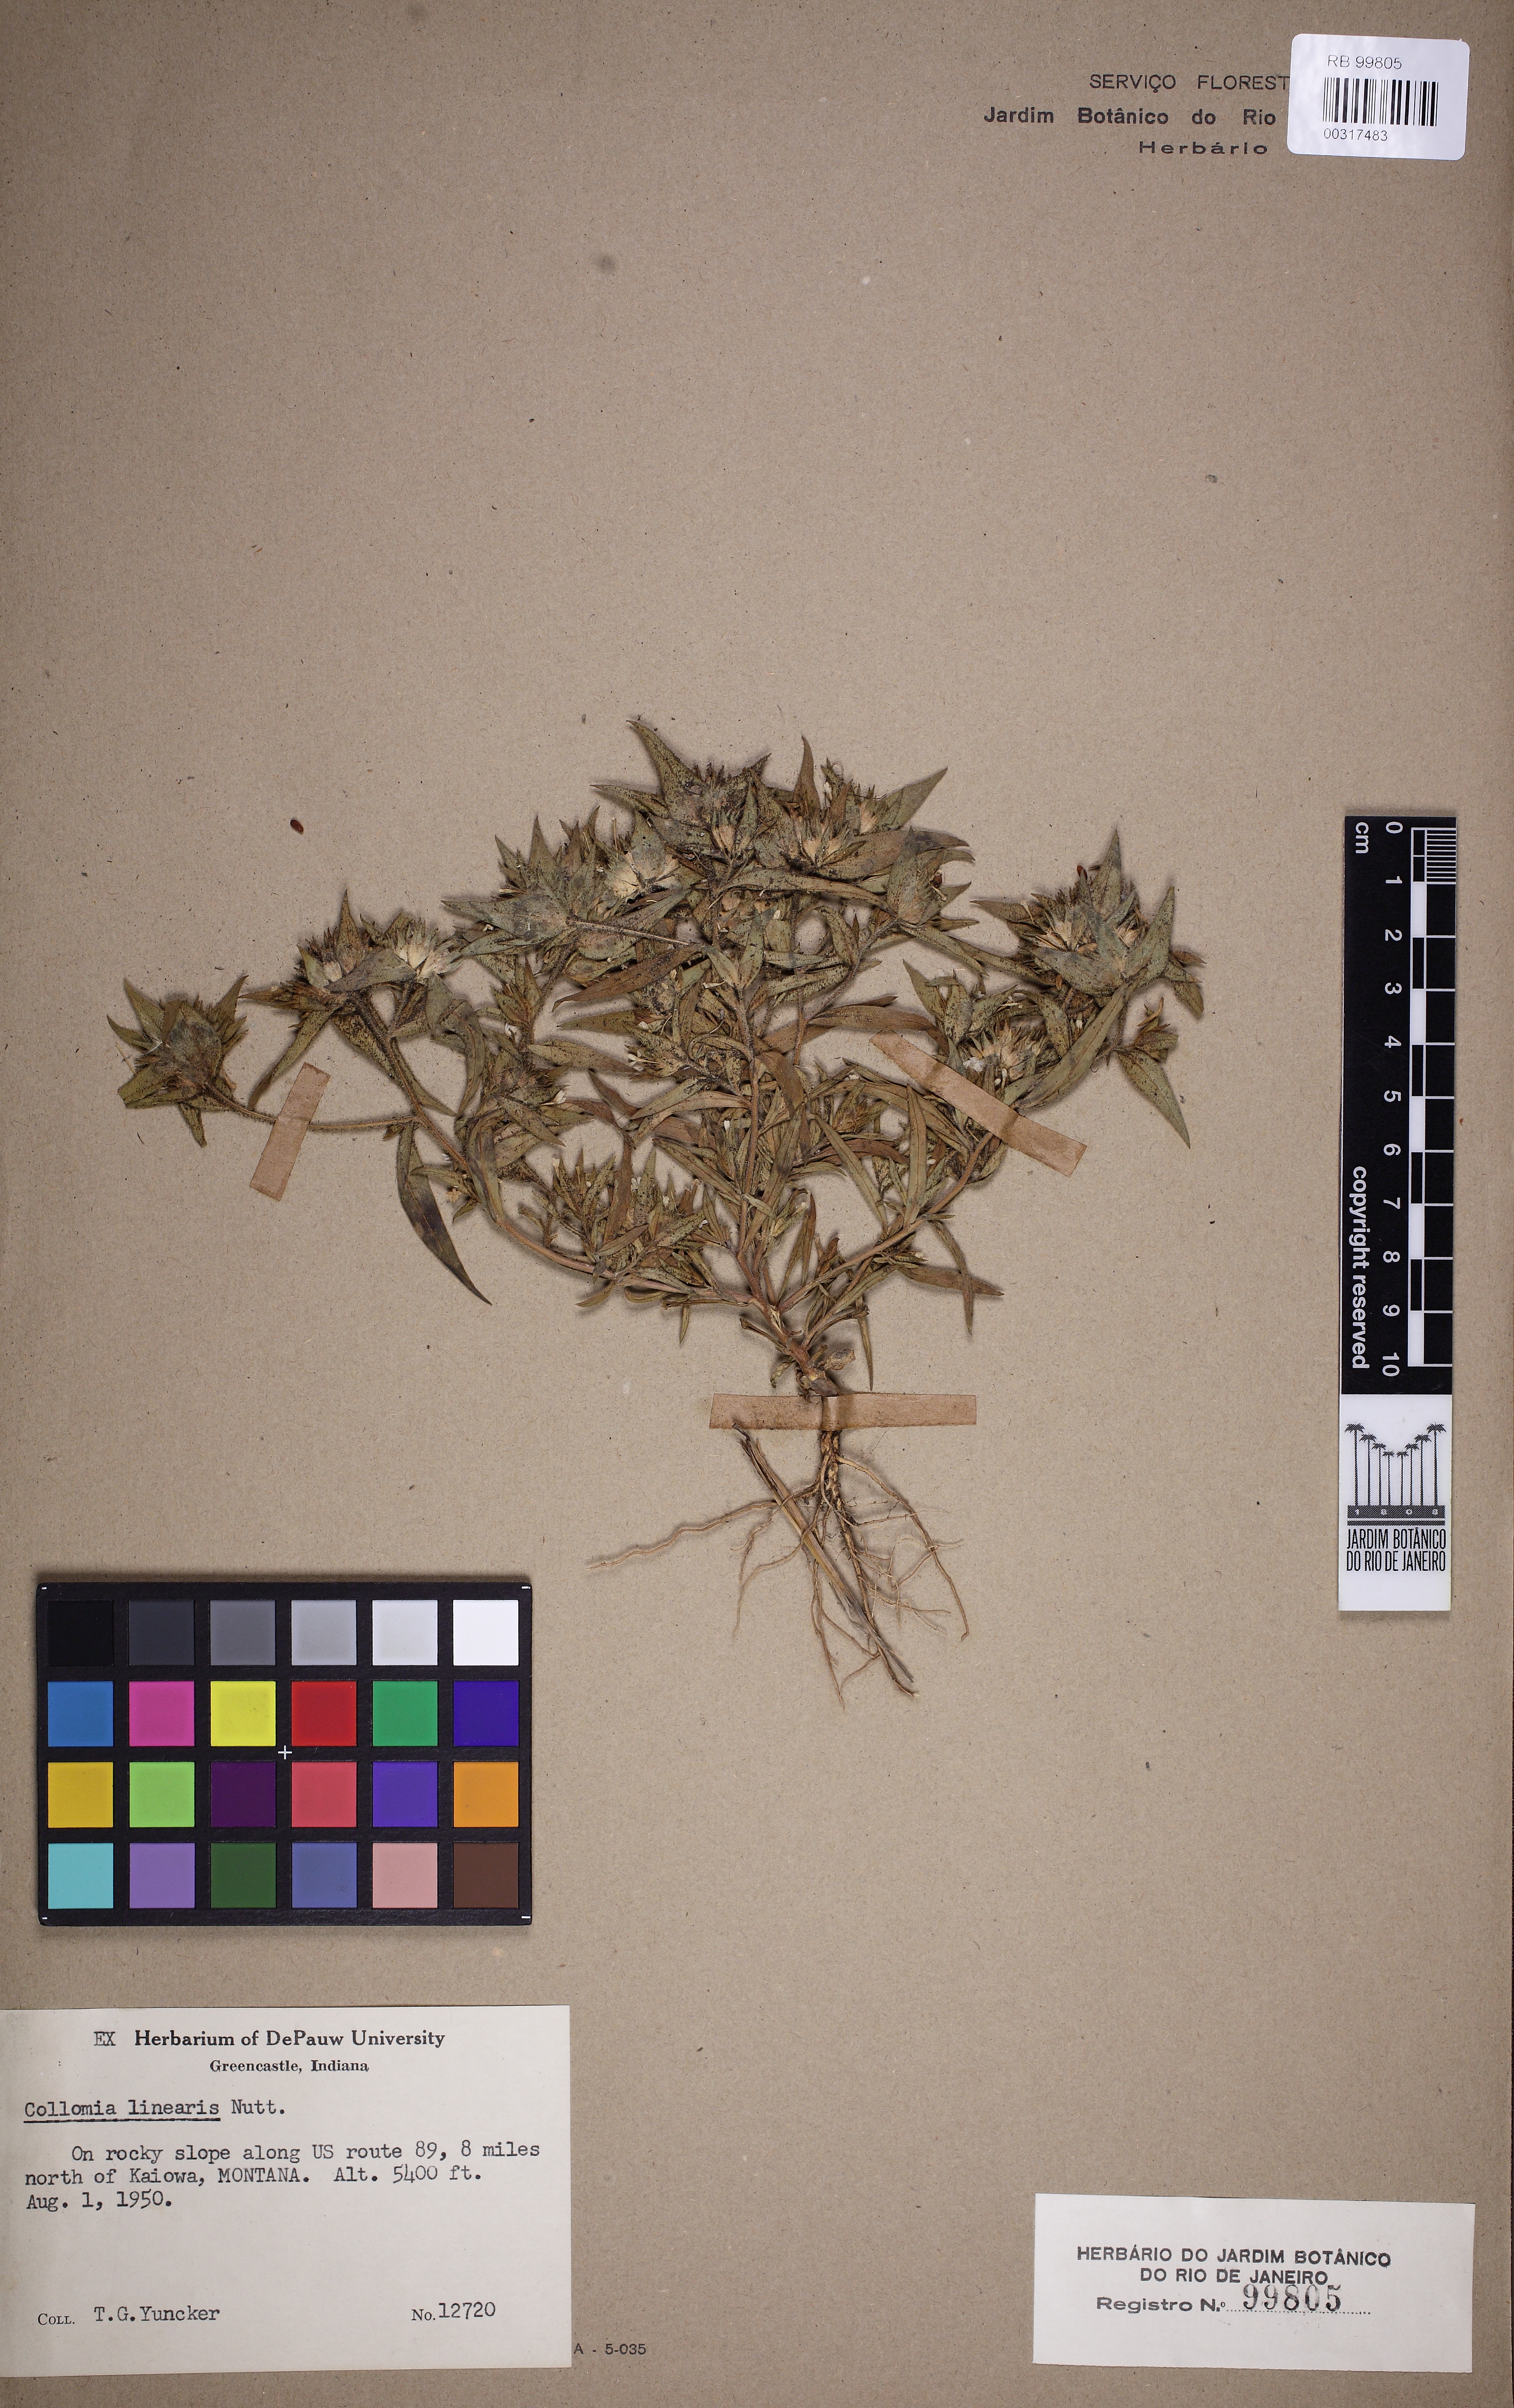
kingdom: Plantae
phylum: Tracheophyta
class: Magnoliopsida
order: Ericales
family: Polemoniaceae
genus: Collomia
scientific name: Collomia linearis
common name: Tiny trumpet
